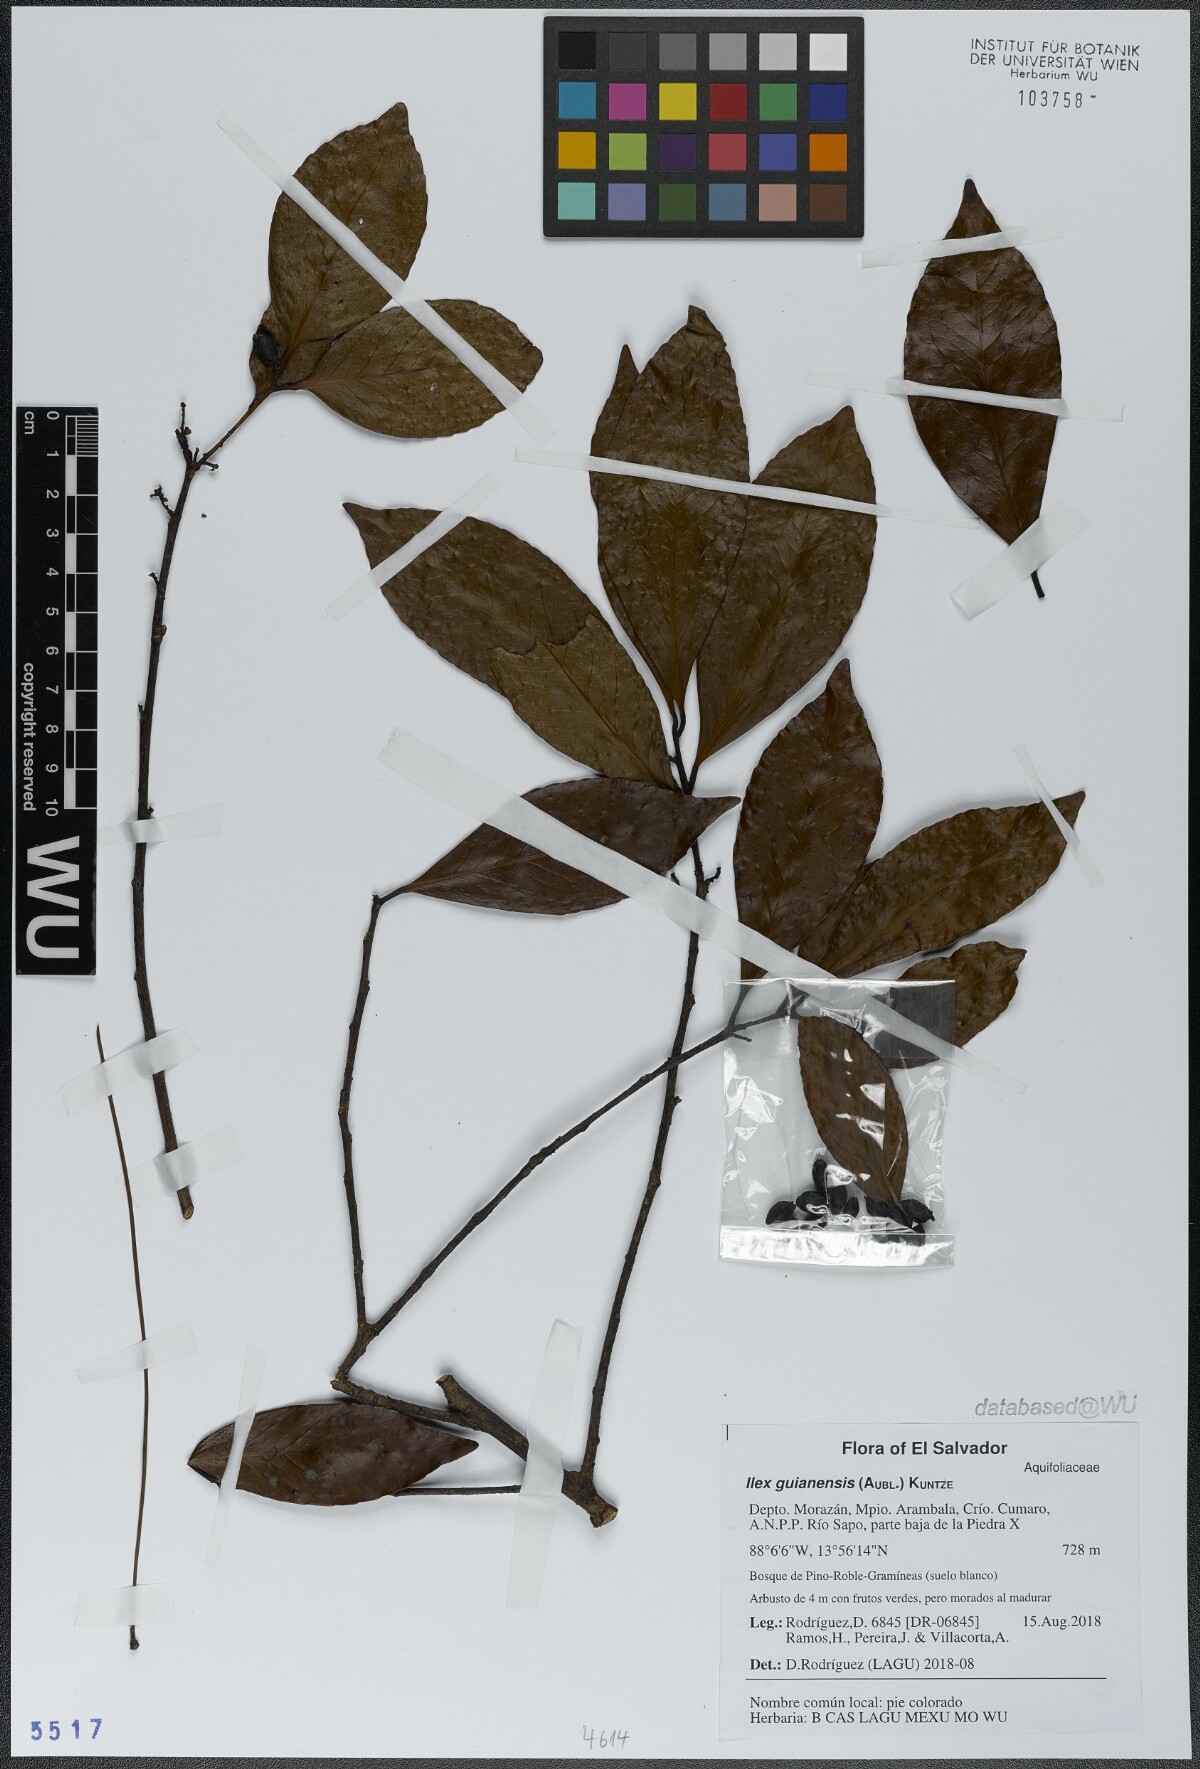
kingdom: Plantae
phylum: Tracheophyta
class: Magnoliopsida
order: Aquifoliales
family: Aquifoliaceae
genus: Ilex
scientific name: Ilex guianensis
